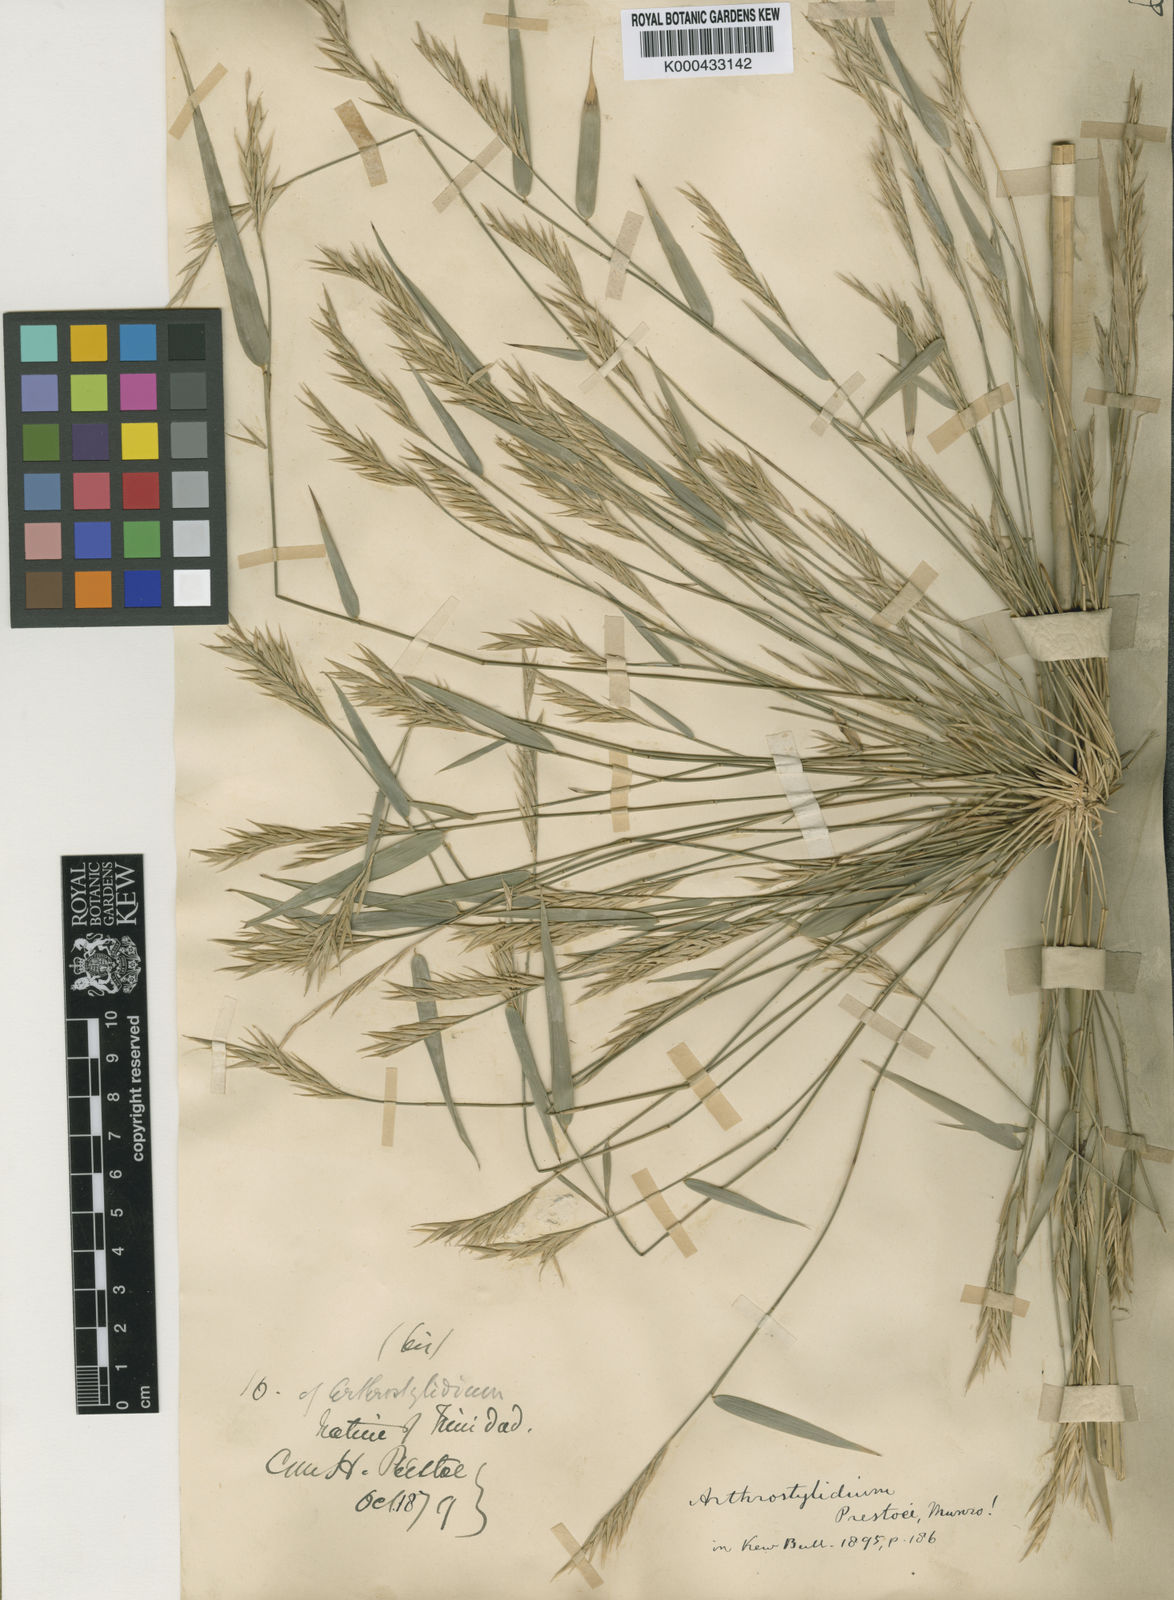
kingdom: Plantae
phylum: Tracheophyta
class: Liliopsida
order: Poales
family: Poaceae
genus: Rhipidocladum
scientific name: Rhipidocladum prestoei
